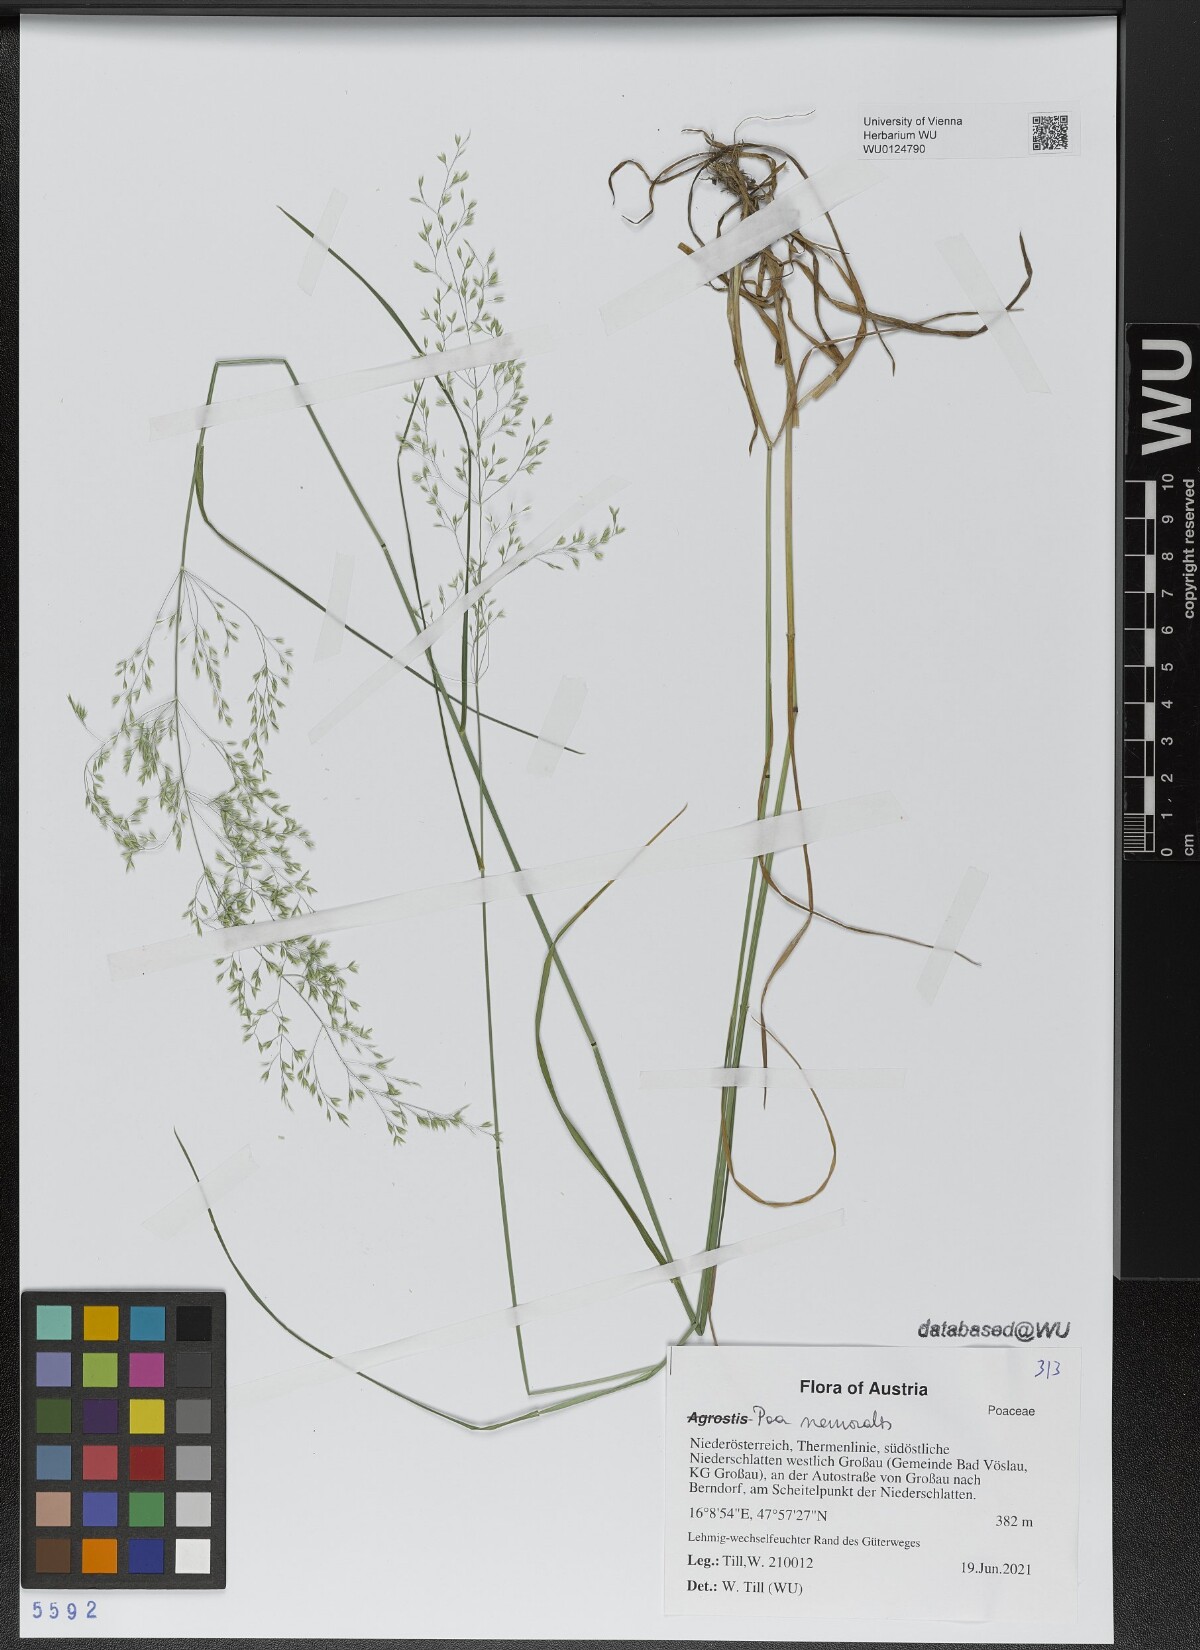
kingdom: Plantae
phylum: Tracheophyta
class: Liliopsida
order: Poales
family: Poaceae
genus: Poa
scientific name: Poa nemoralis
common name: Wood bluegrass
